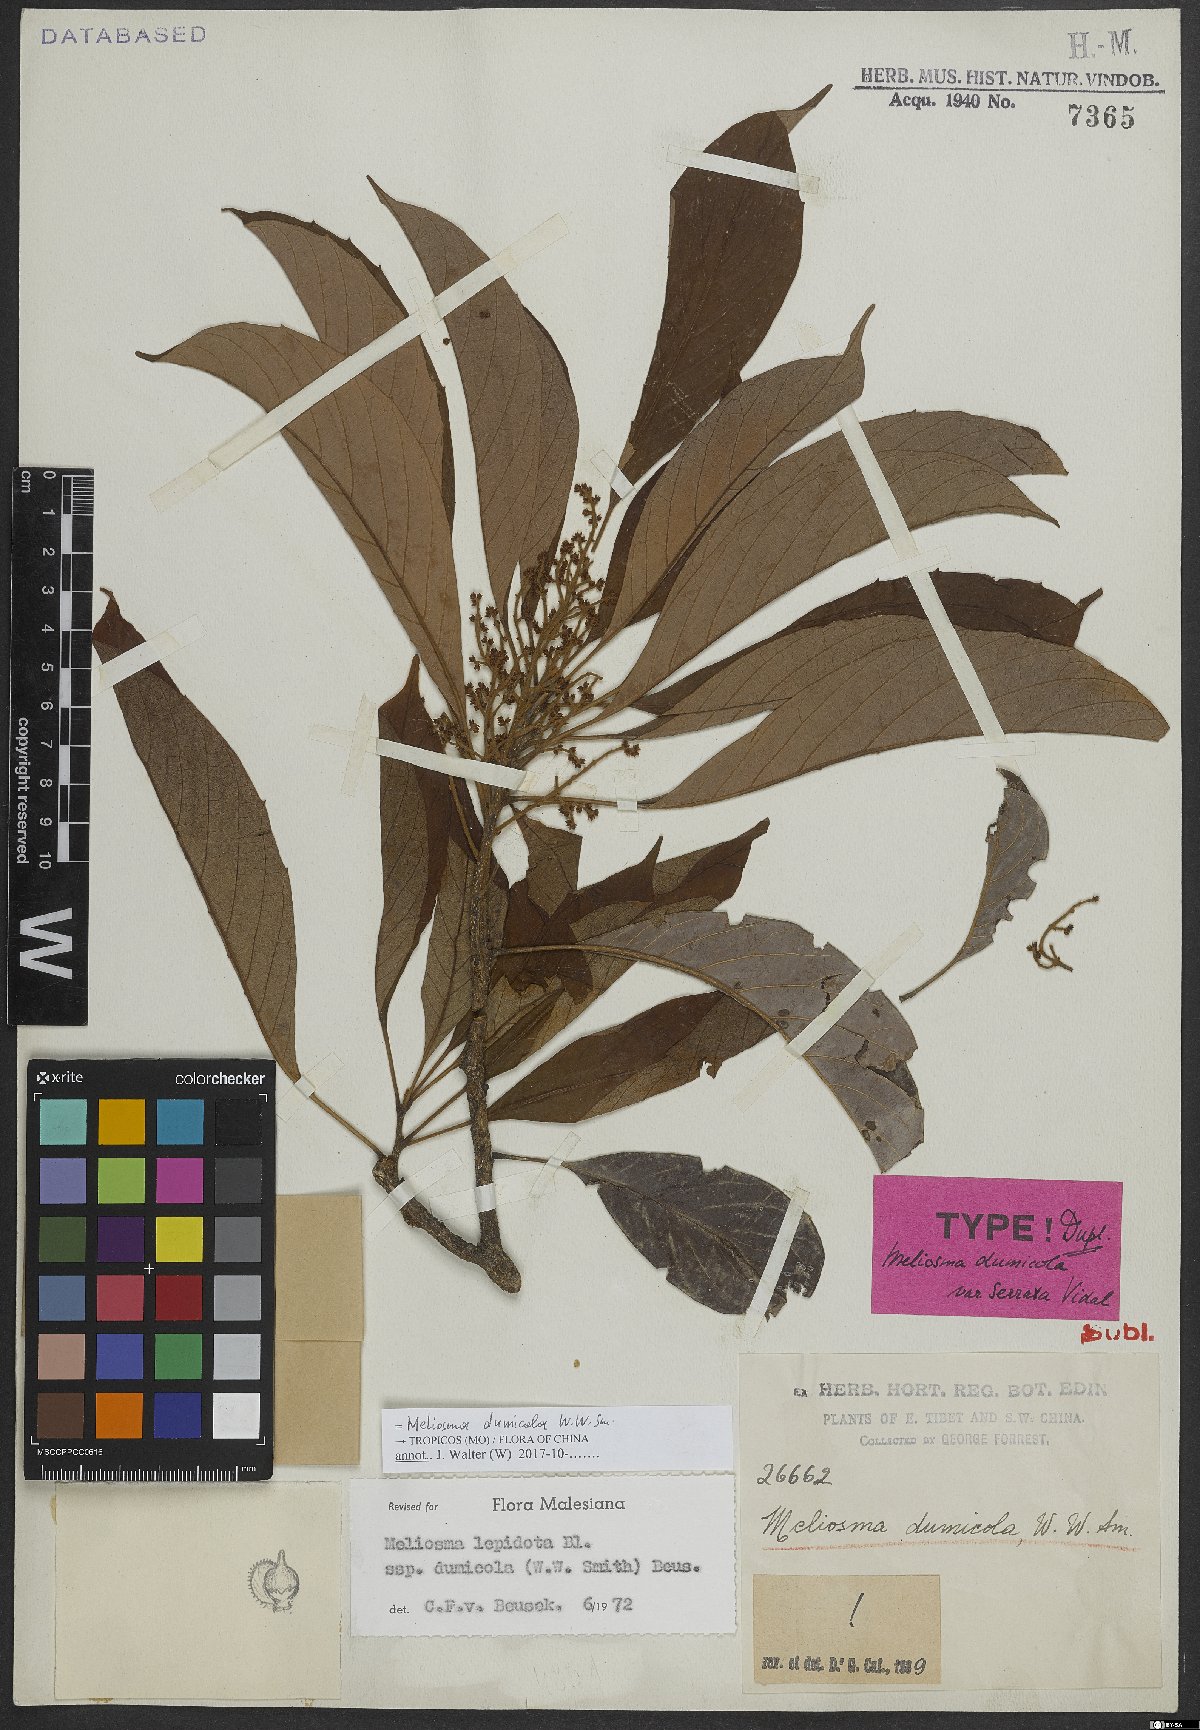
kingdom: Plantae
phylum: Tracheophyta
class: Magnoliopsida
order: Proteales
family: Sabiaceae
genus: Meliosma
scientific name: Meliosma dumicola
